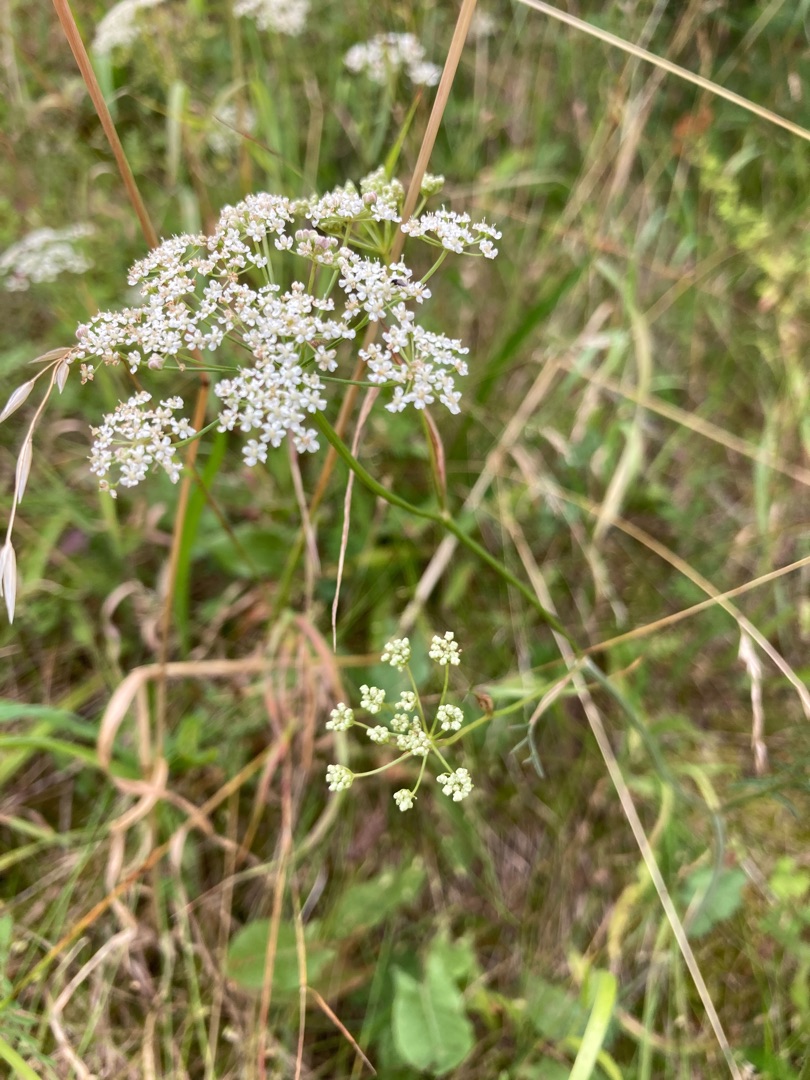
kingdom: Plantae
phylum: Tracheophyta
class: Magnoliopsida
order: Apiales
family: Apiaceae
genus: Pimpinella
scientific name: Pimpinella saxifraga
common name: Almindelig pimpinelle
